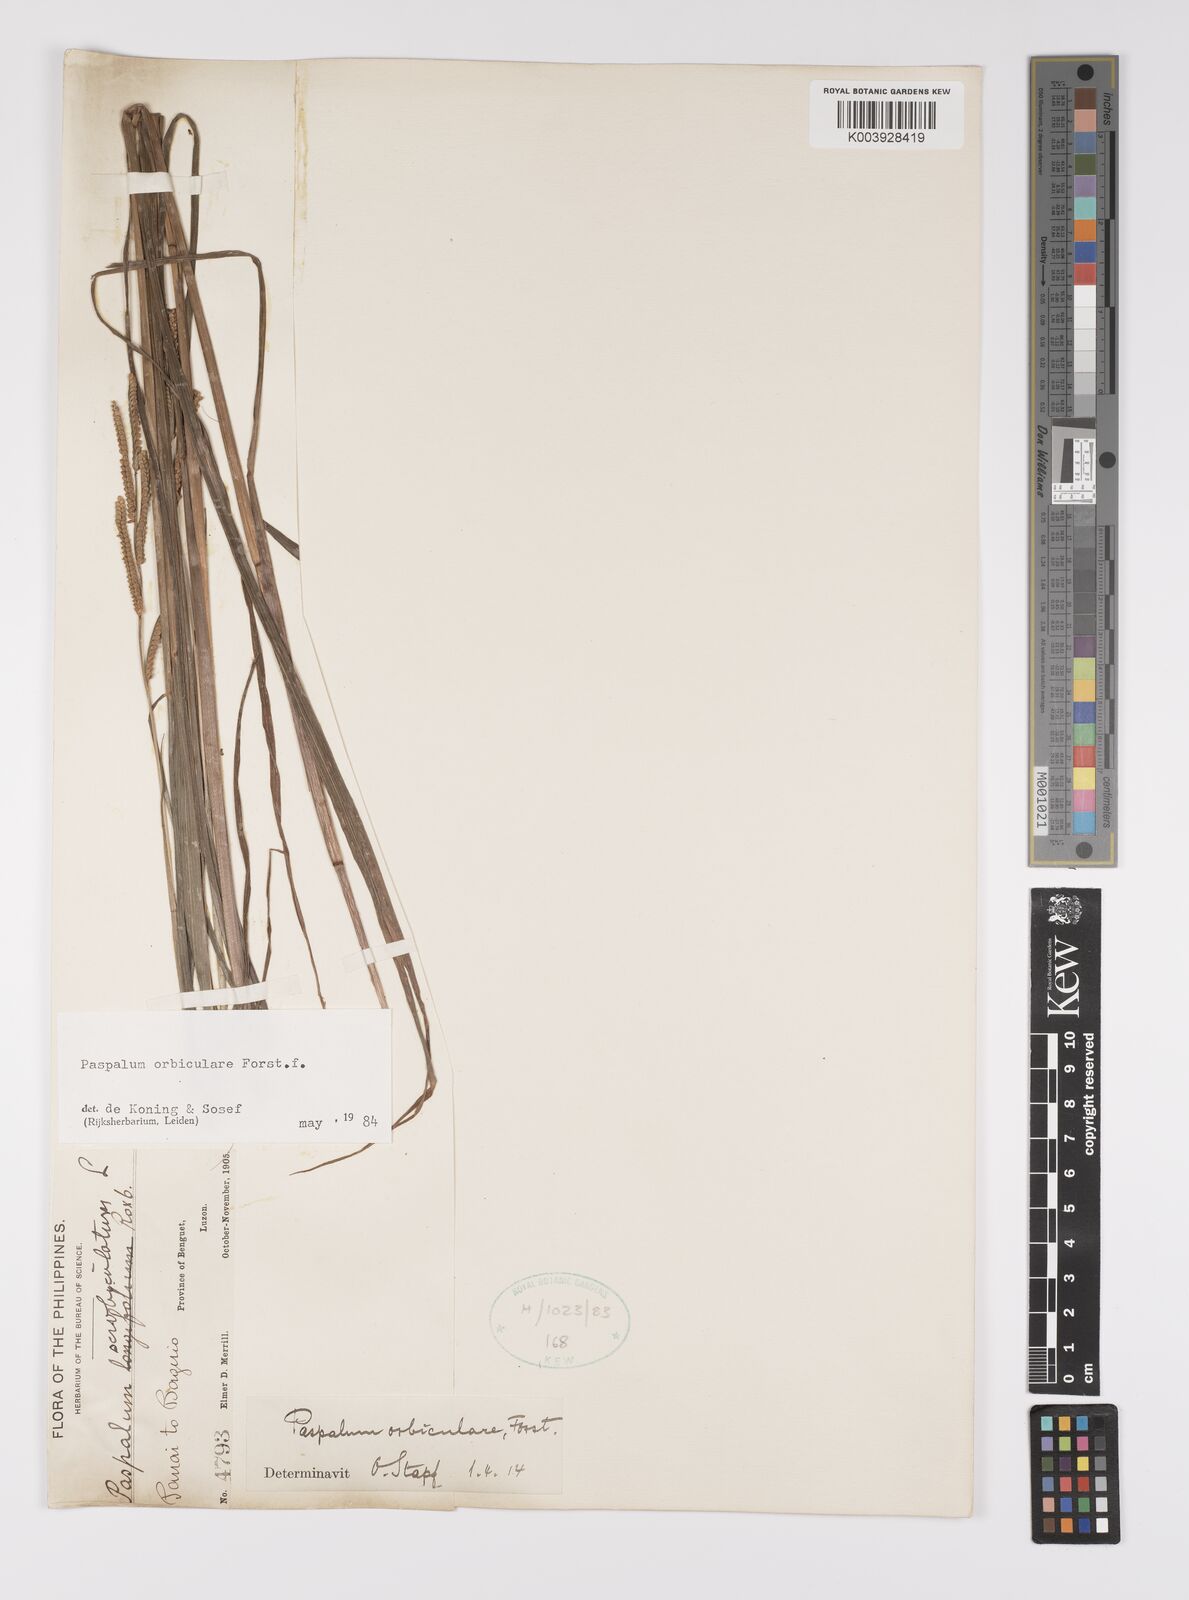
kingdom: Plantae
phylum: Tracheophyta
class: Liliopsida
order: Poales
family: Poaceae
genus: Paspalum
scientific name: Paspalum scrobiculatum
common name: Kodo millet
